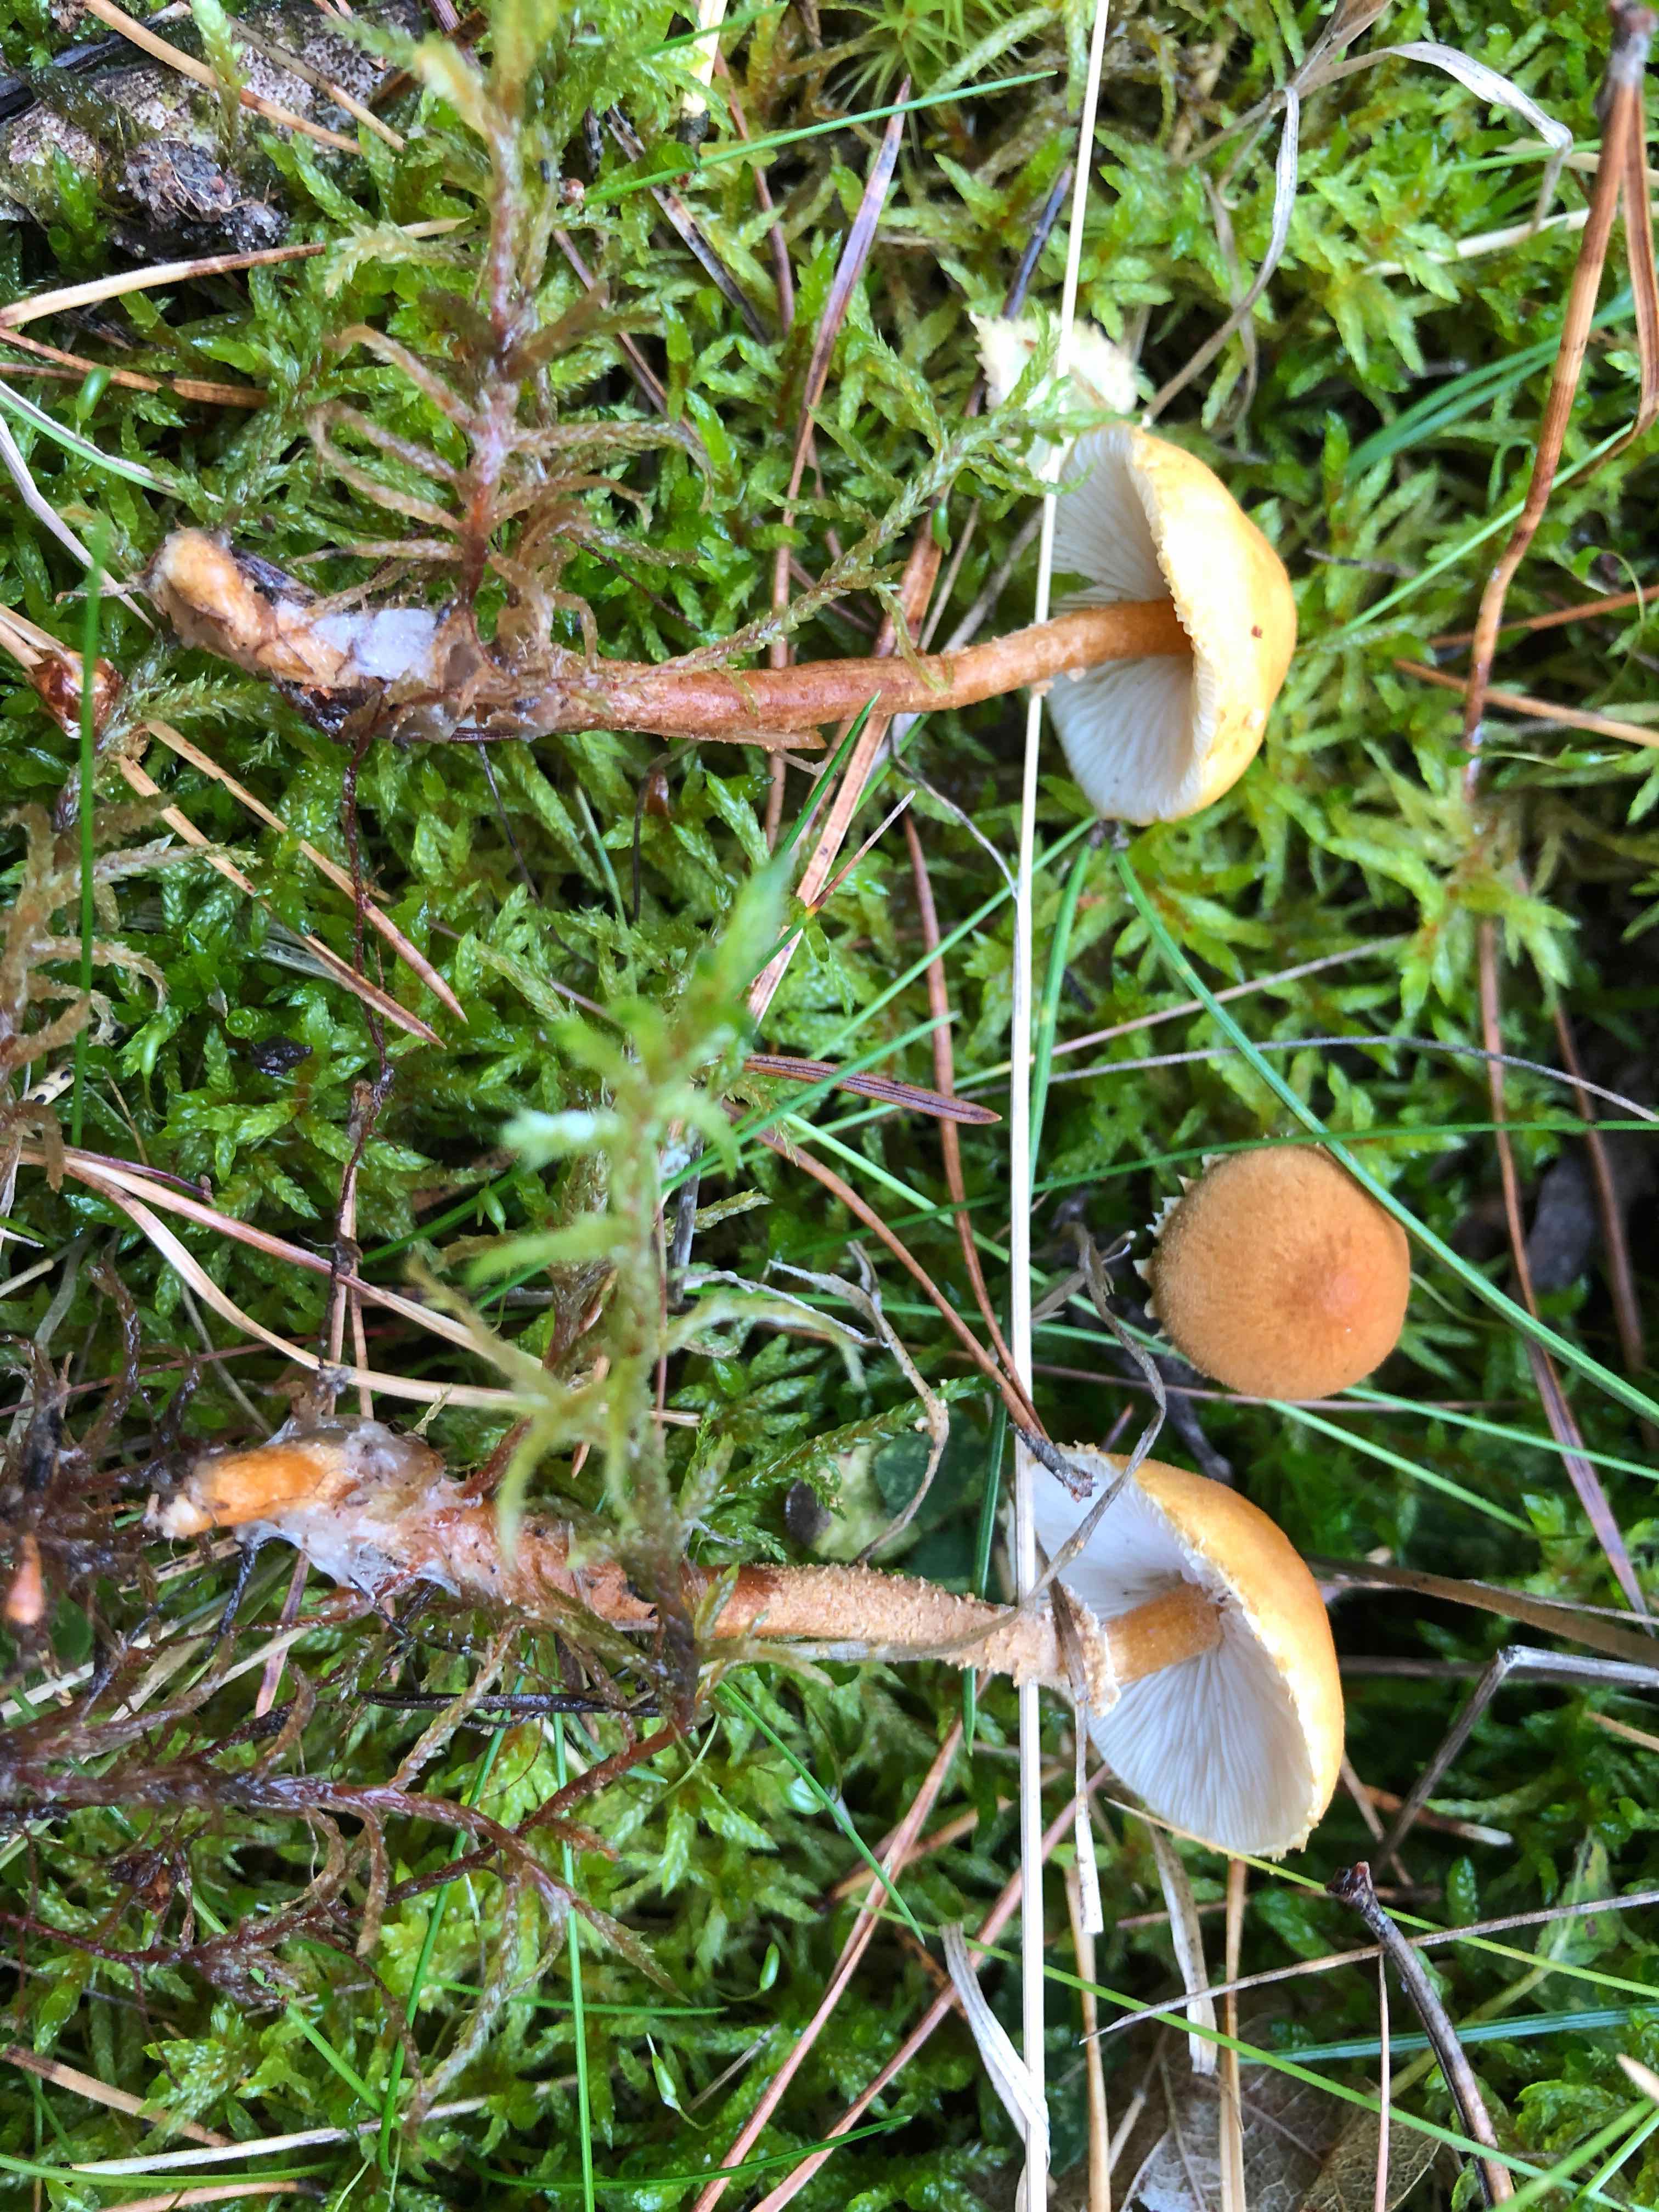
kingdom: Fungi
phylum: Basidiomycota
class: Agaricomycetes
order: Agaricales
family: Tricholomataceae
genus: Cystoderma
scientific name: Cystoderma amianthinum
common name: okkergul grynhat
